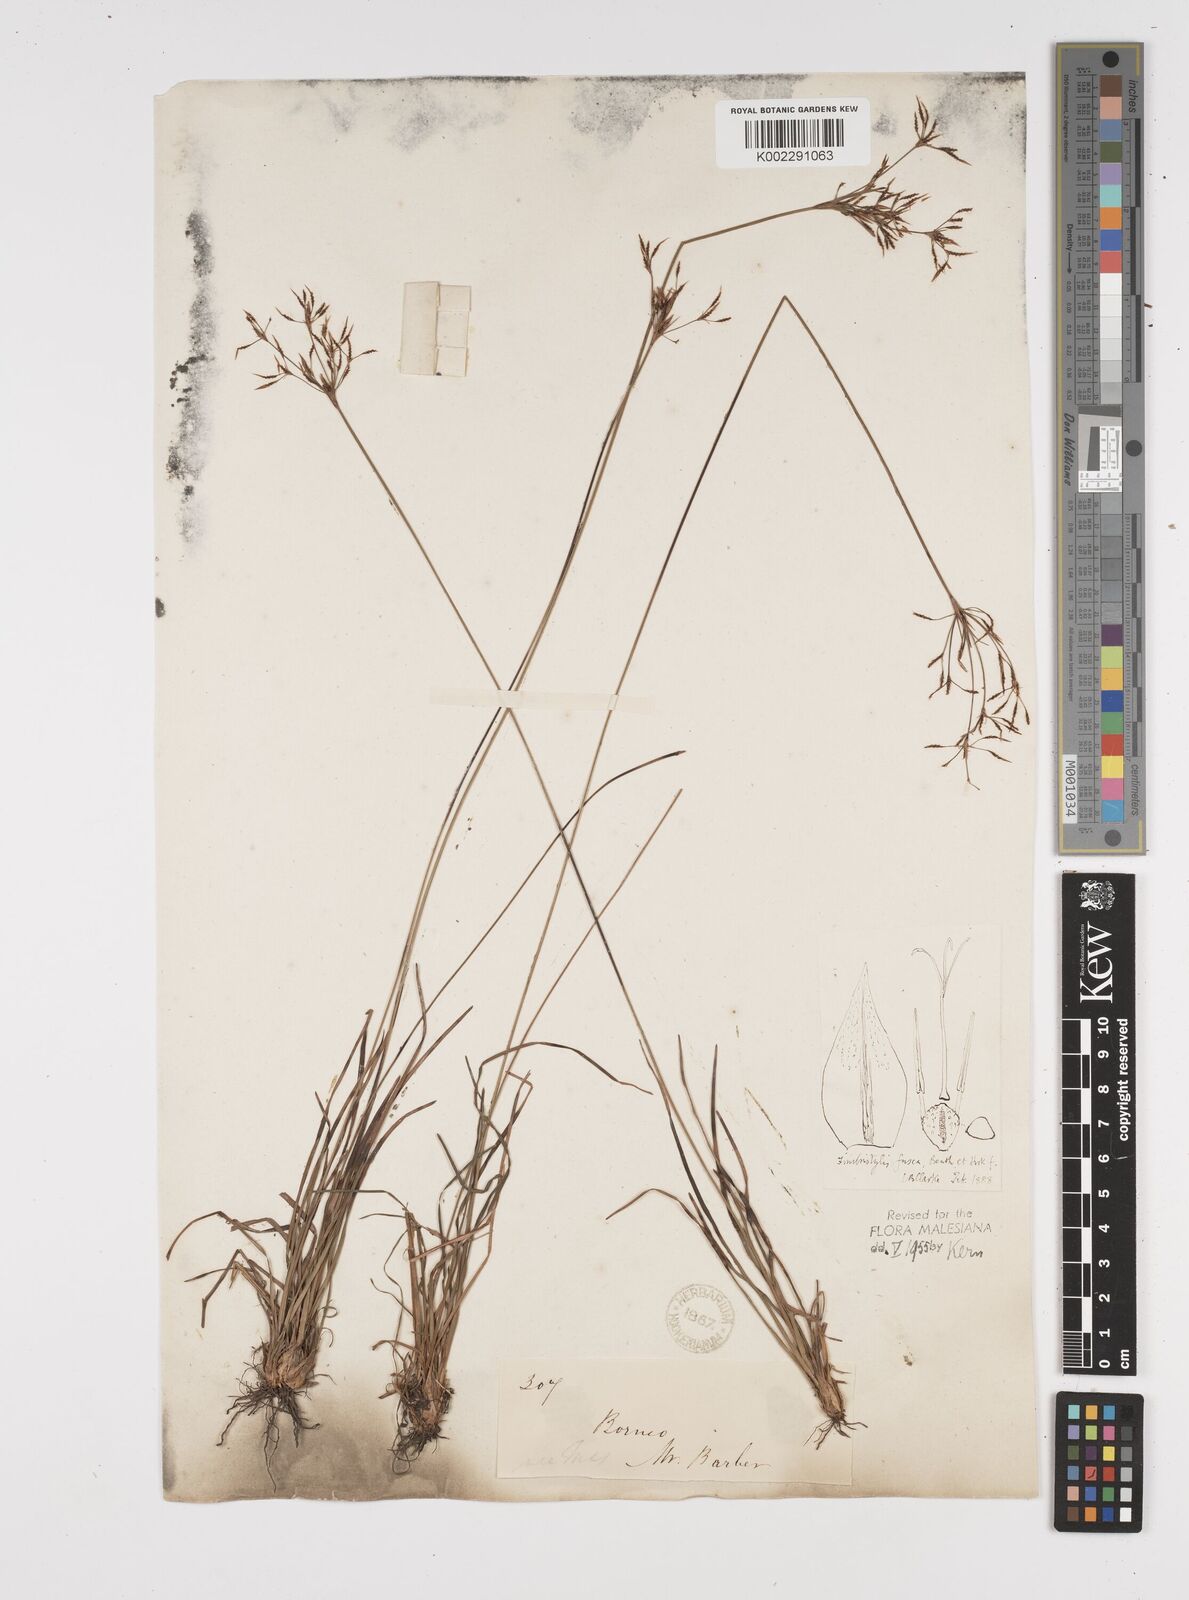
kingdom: Plantae
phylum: Tracheophyta
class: Liliopsida
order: Poales
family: Cyperaceae
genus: Fimbristylis
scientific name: Fimbristylis fusca
